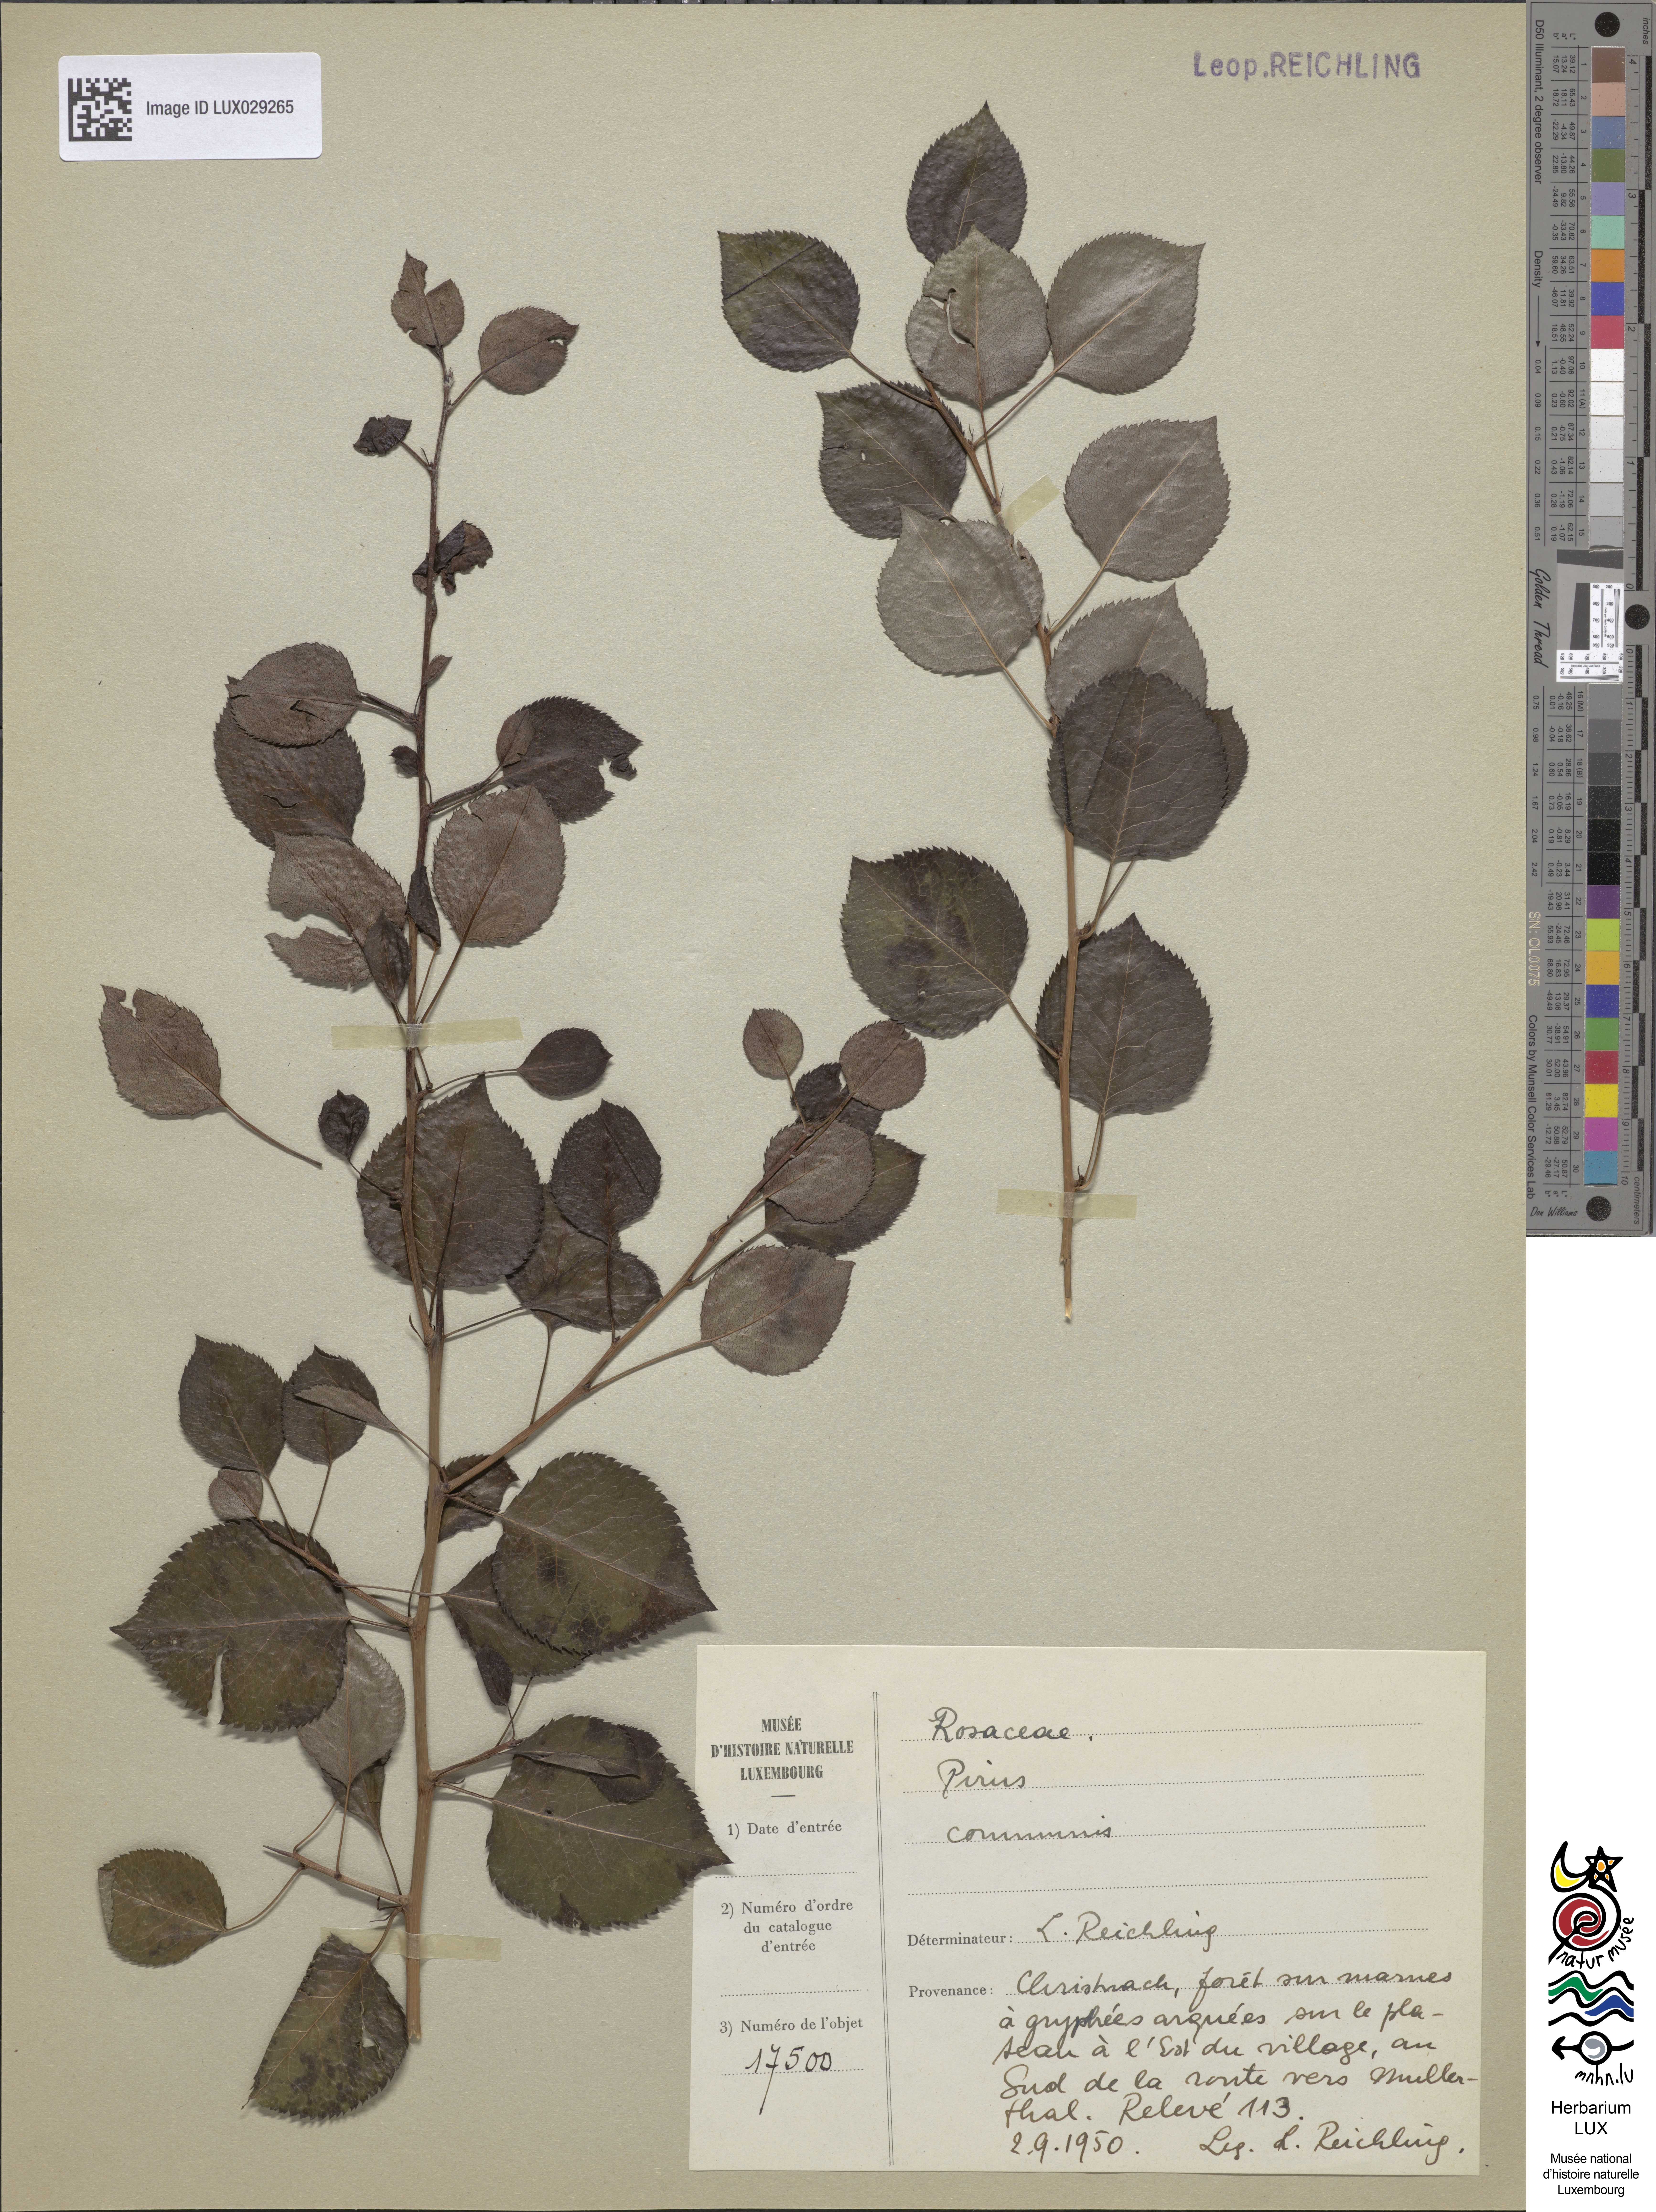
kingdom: Plantae
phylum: Tracheophyta
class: Magnoliopsida
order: Rosales
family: Rosaceae
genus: Pyrus
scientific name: Pyrus communis
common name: Pear
